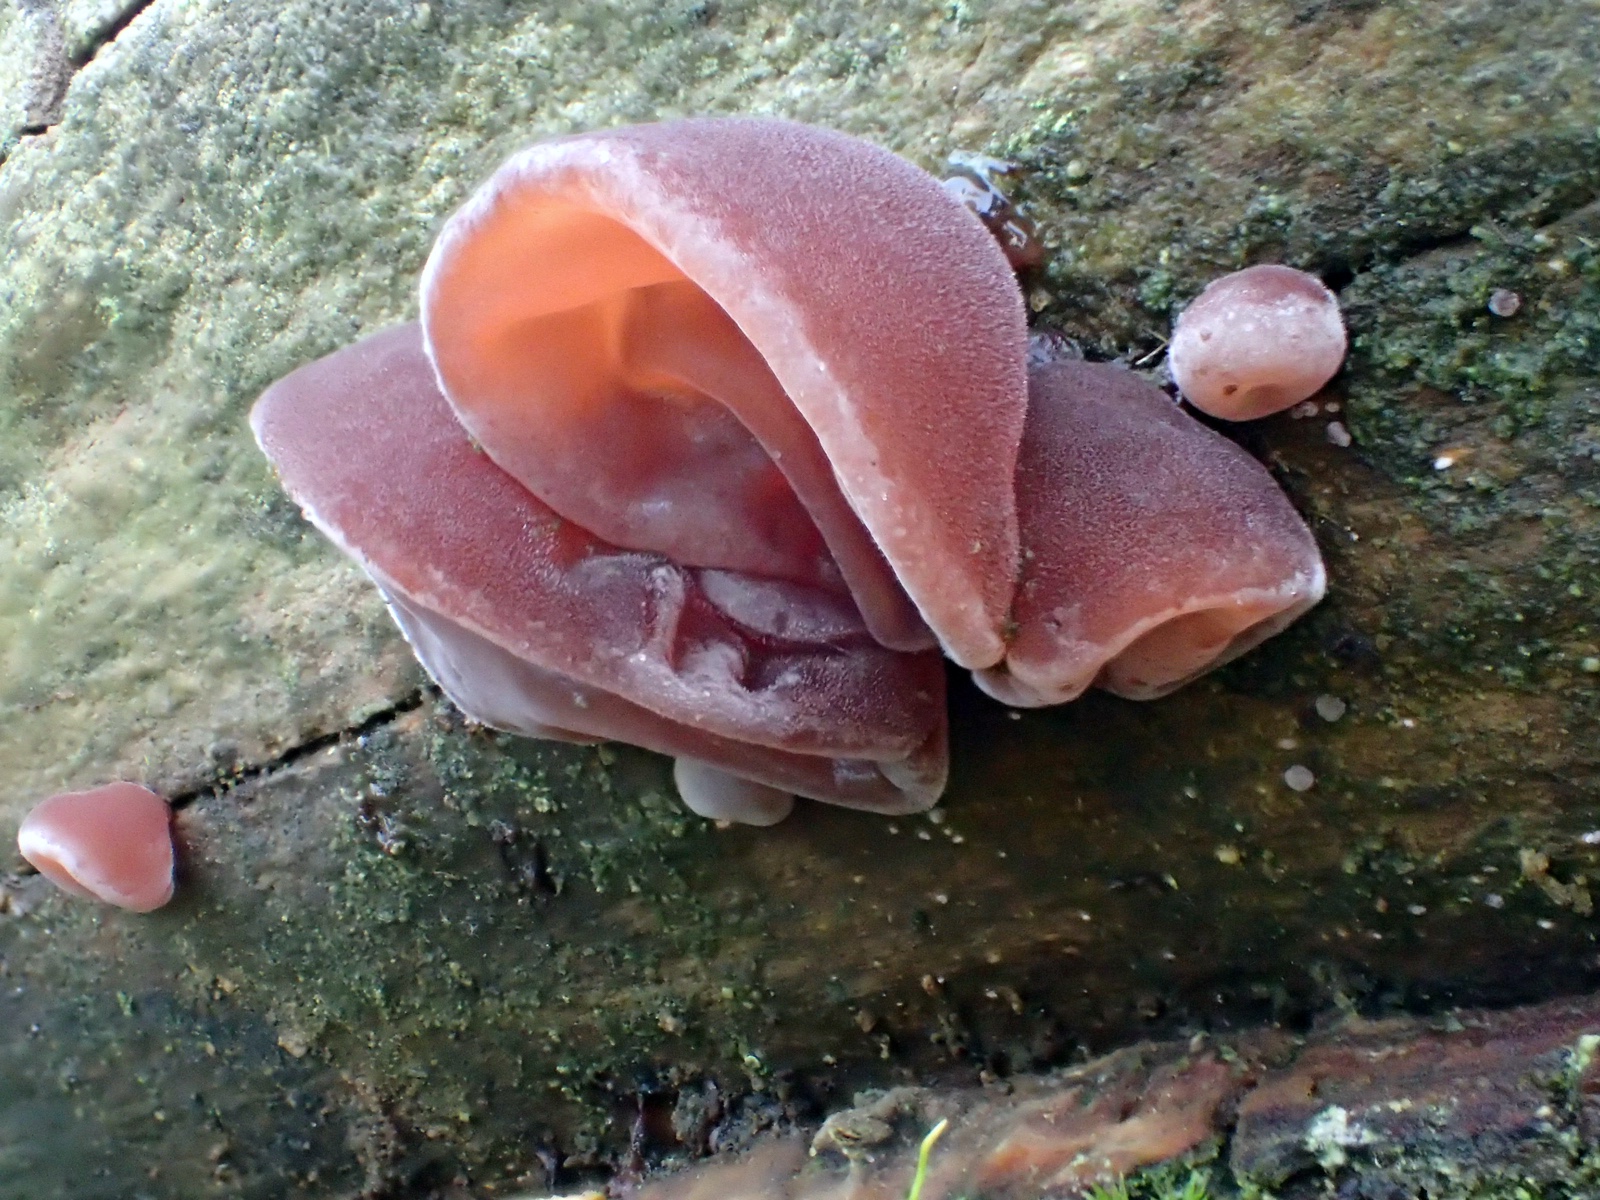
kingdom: Fungi
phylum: Basidiomycota
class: Agaricomycetes
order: Auriculariales
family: Auriculariaceae
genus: Auricularia
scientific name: Auricularia auricula-judae
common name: almindelig judasøre
